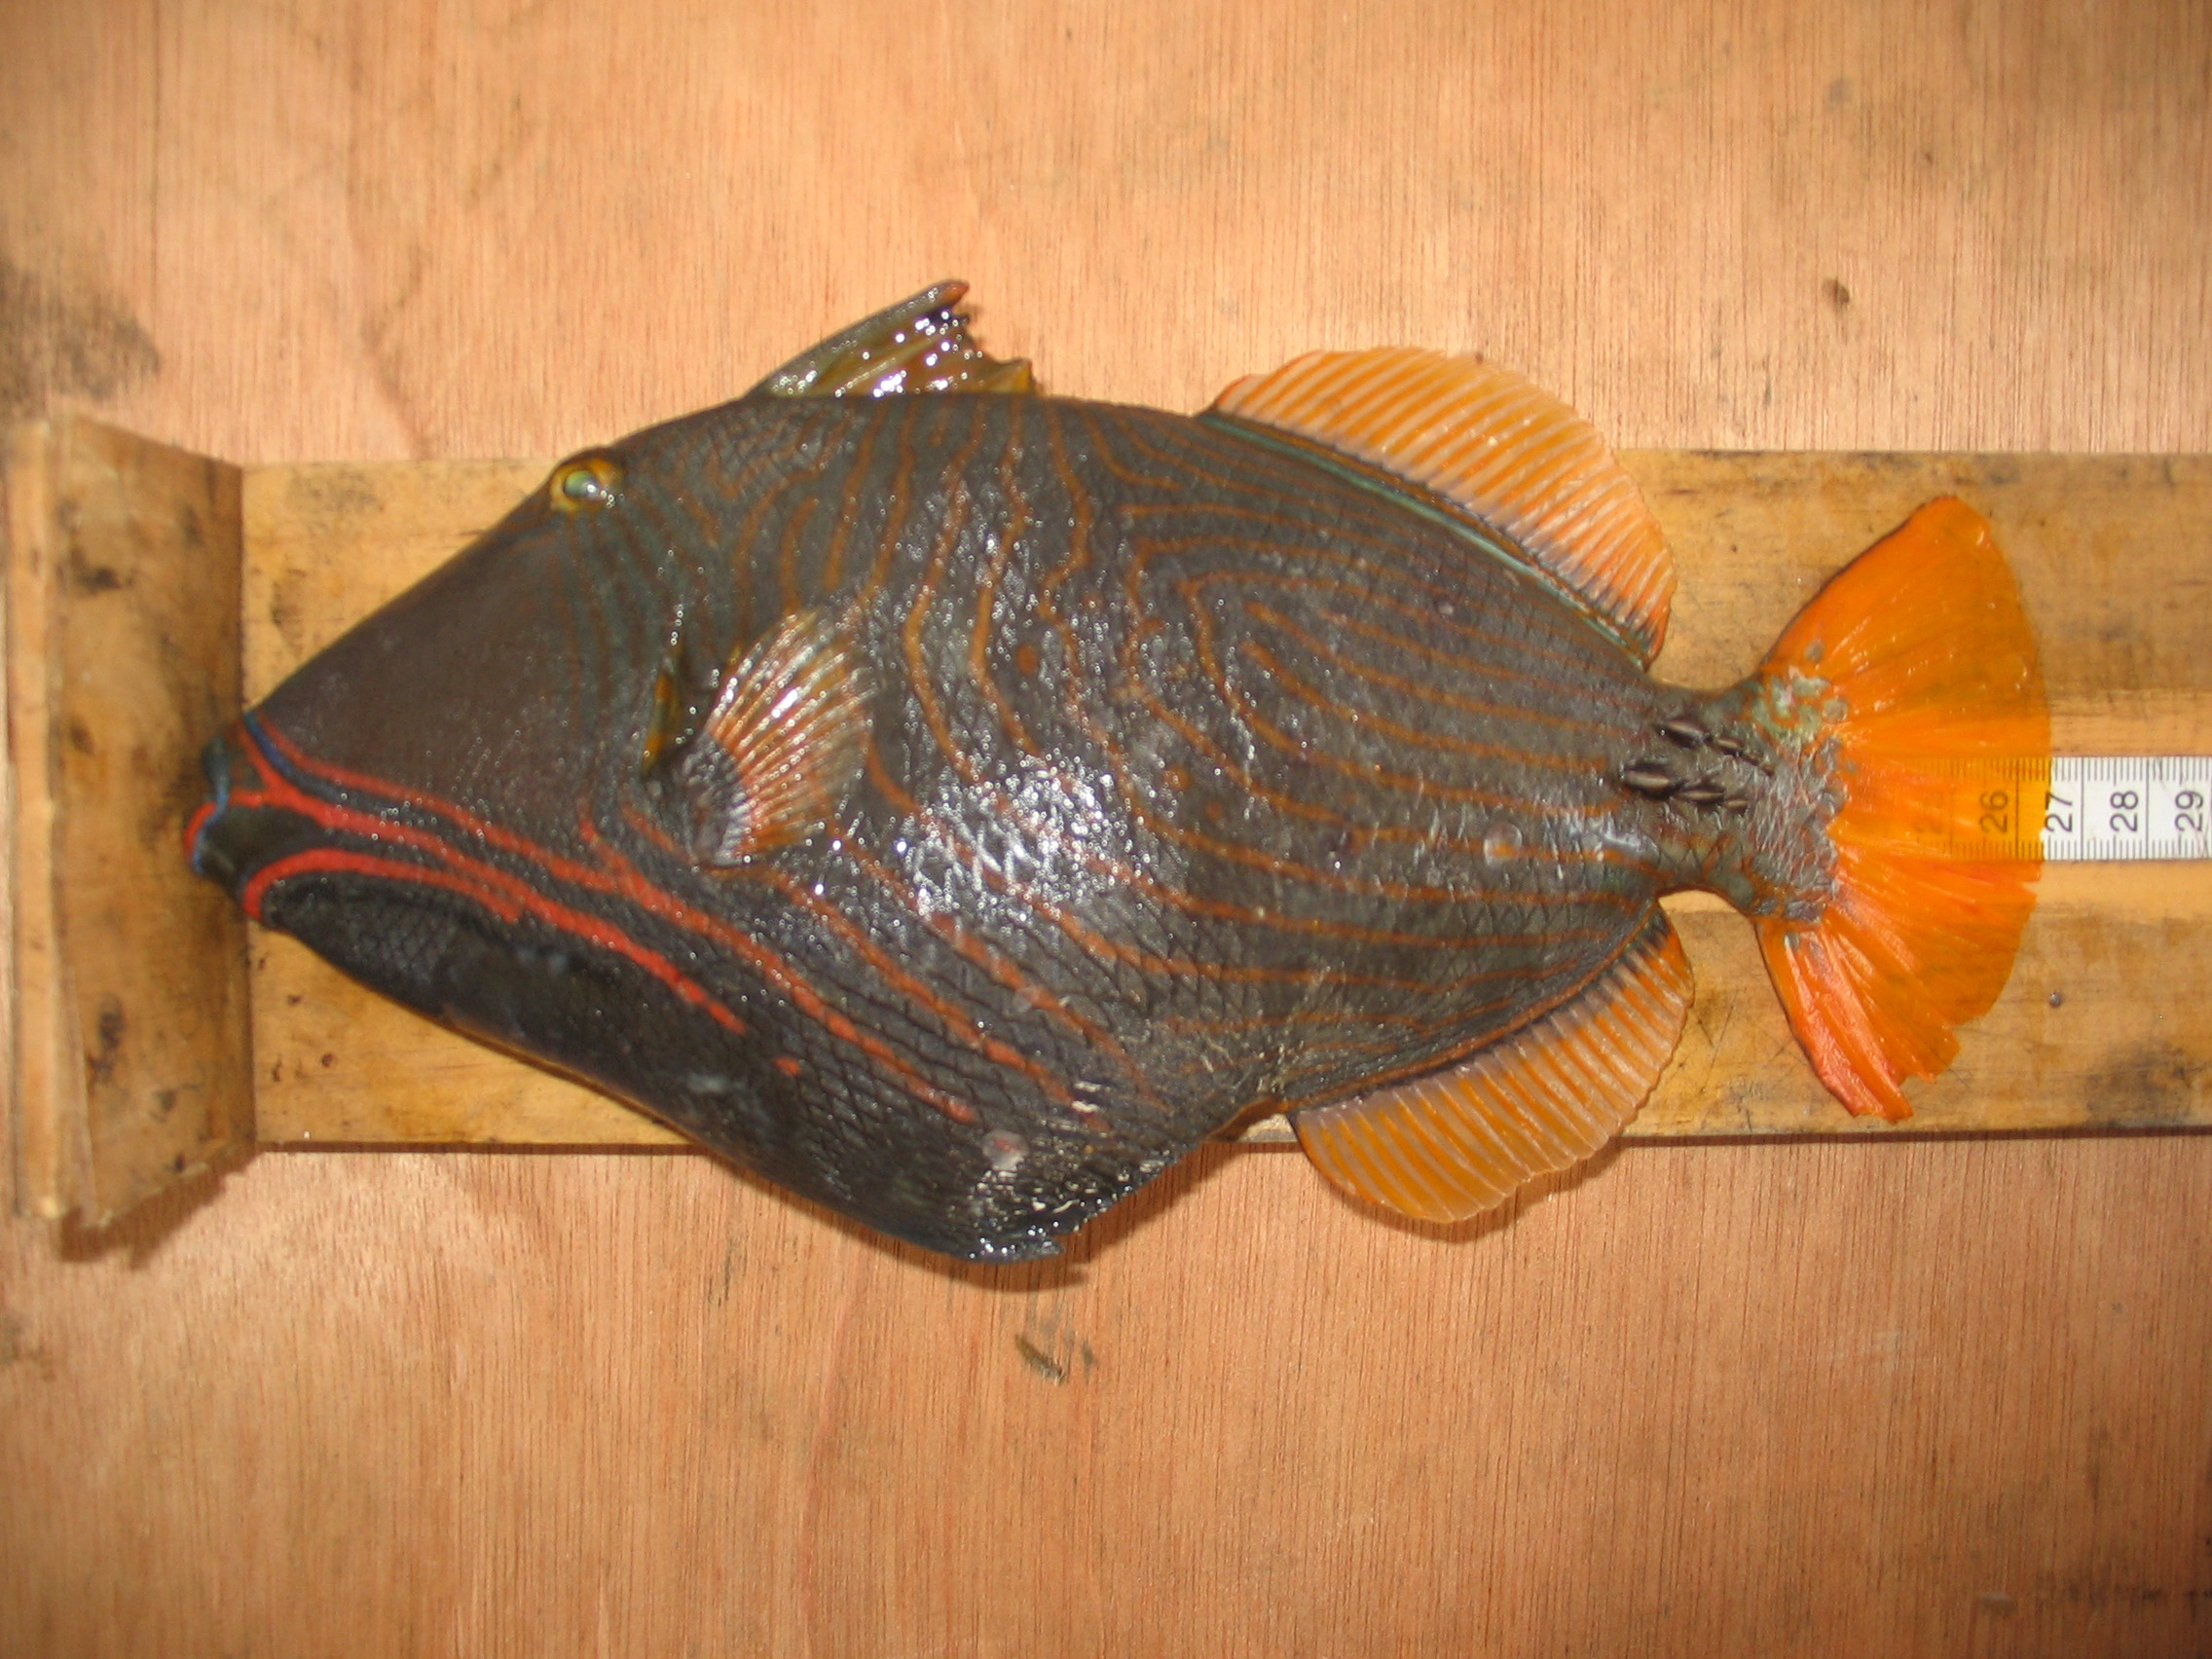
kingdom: Animalia
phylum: Chordata
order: Tetraodontiformes
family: Balistidae
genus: Balistapus
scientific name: Balistapus undulatus
